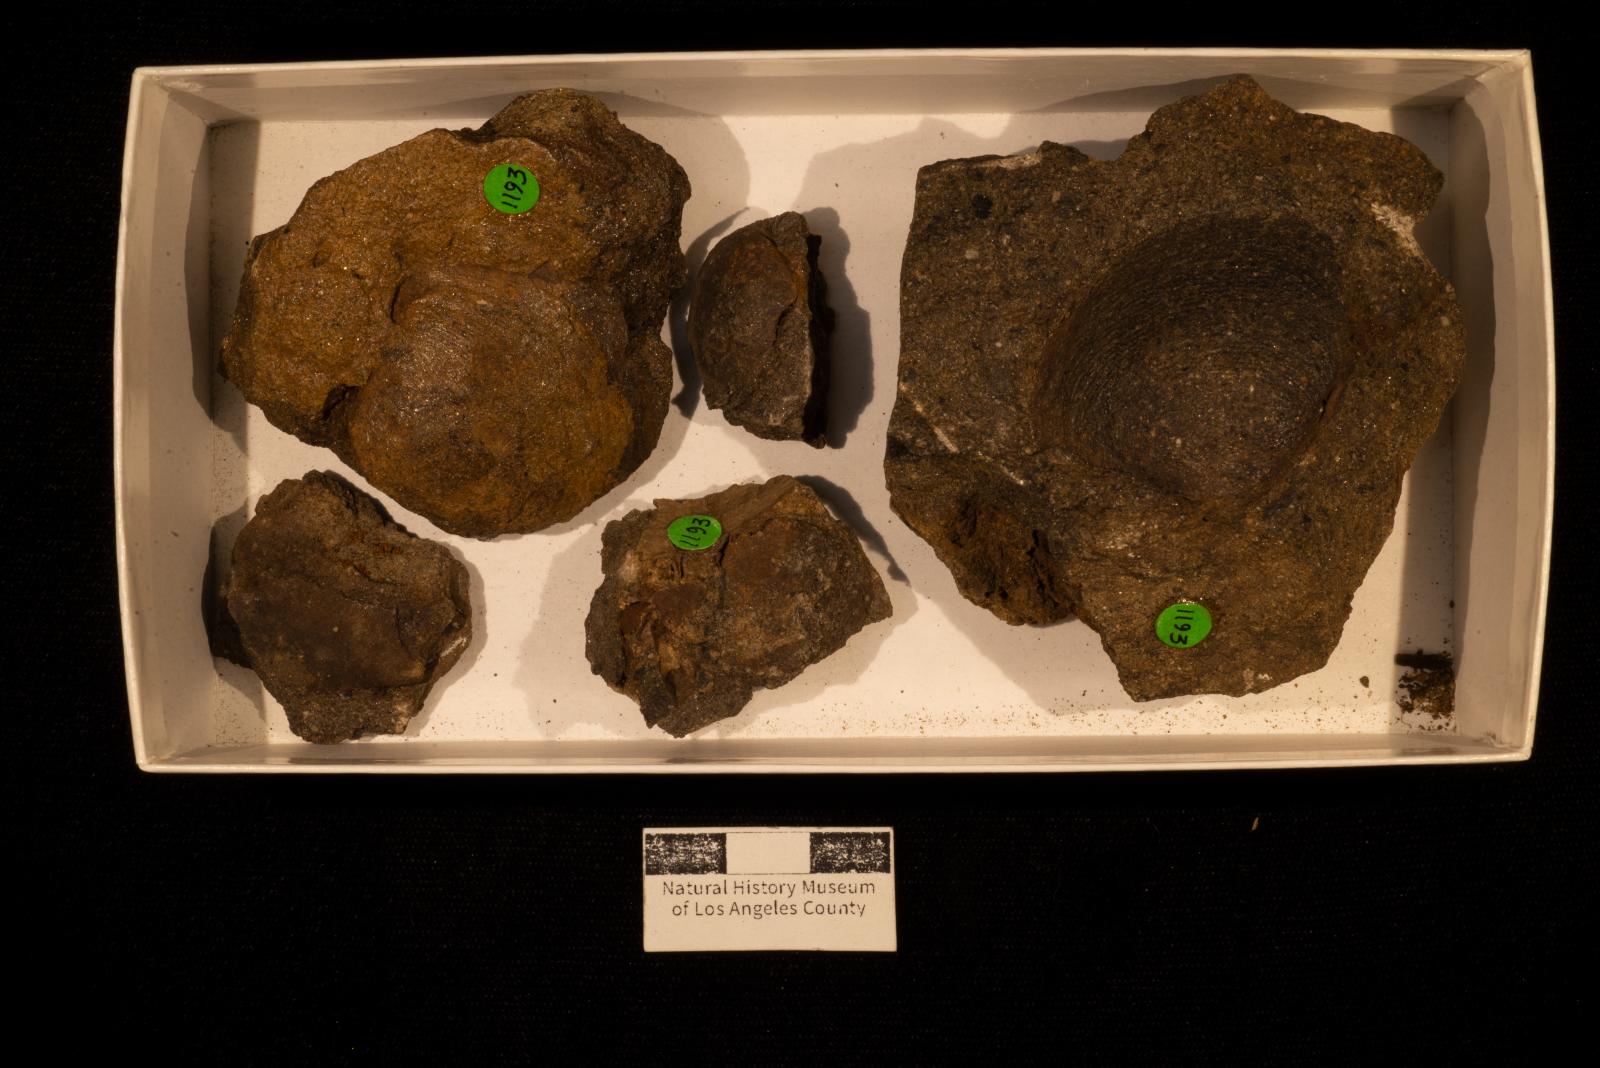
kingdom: Animalia
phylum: Mollusca
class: Bivalvia
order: Venerida
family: Veneridae
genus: Callistalox
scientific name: Callistalox Meretrix fragilis
